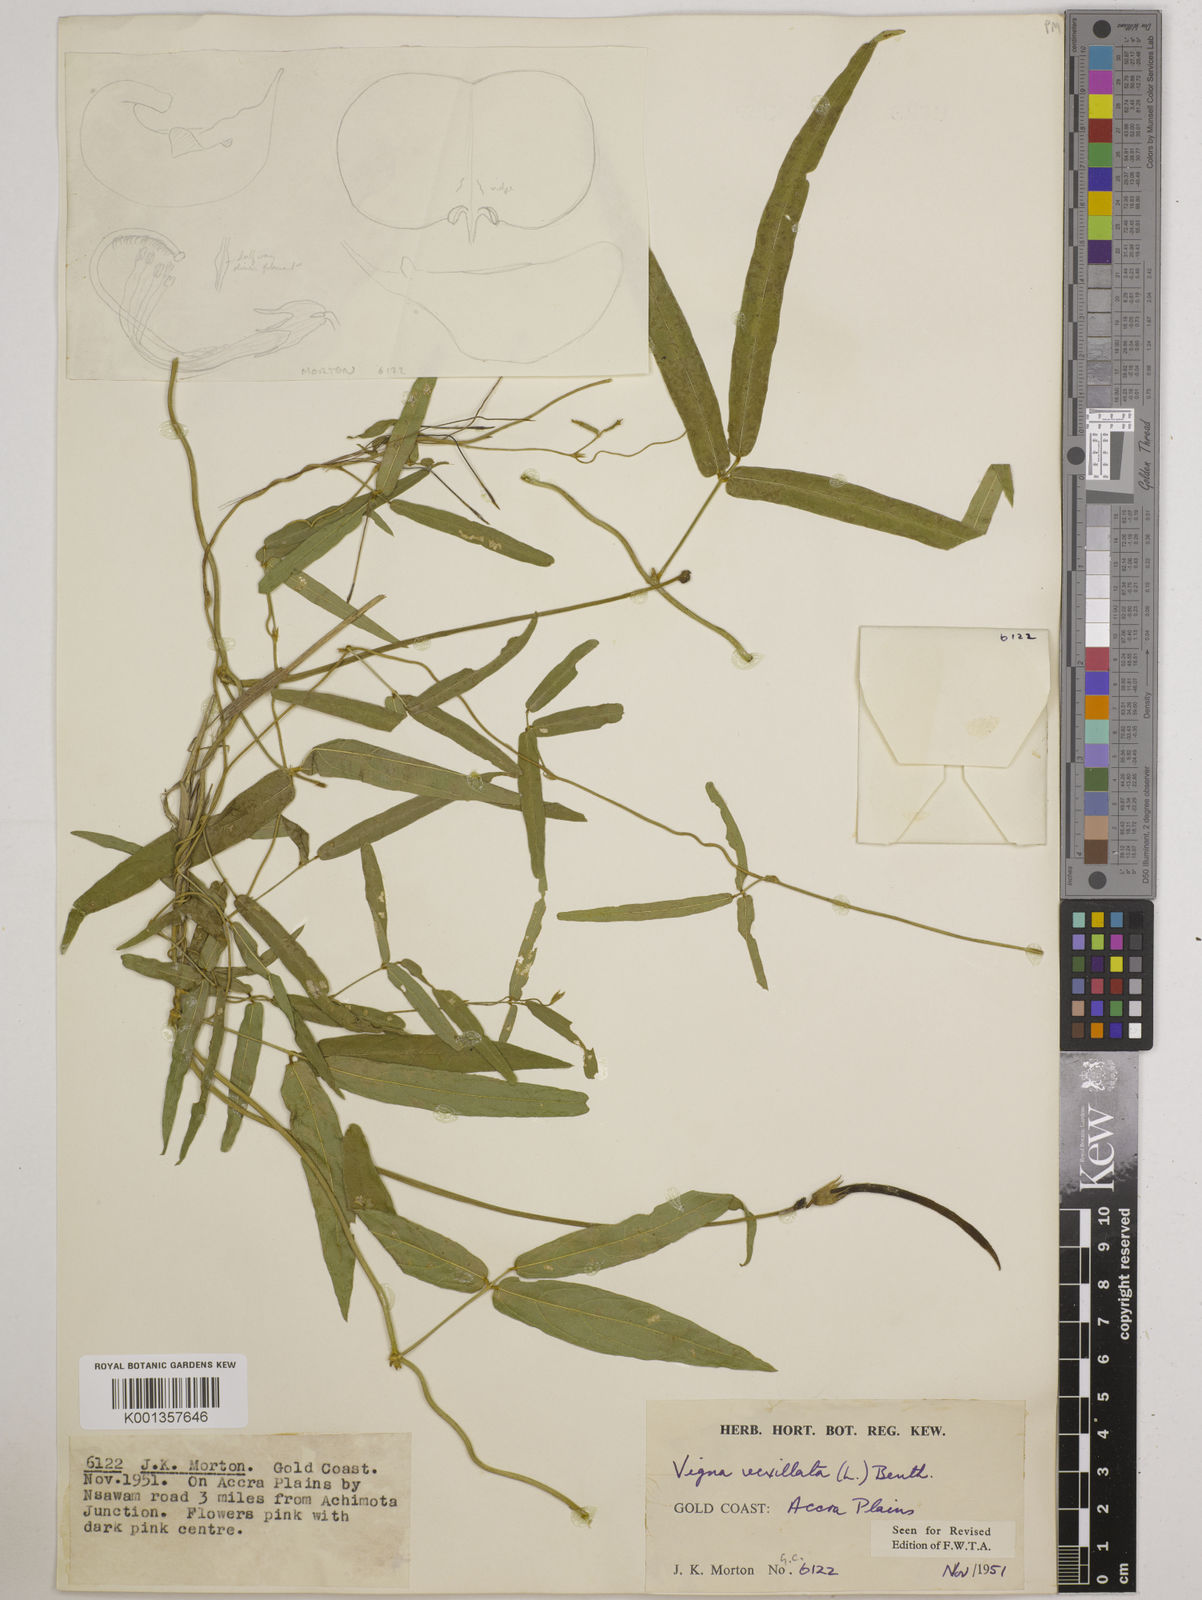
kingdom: Plantae
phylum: Tracheophyta
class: Magnoliopsida
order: Fabales
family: Fabaceae
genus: Vigna
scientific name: Vigna vexillata
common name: Zombi pea
